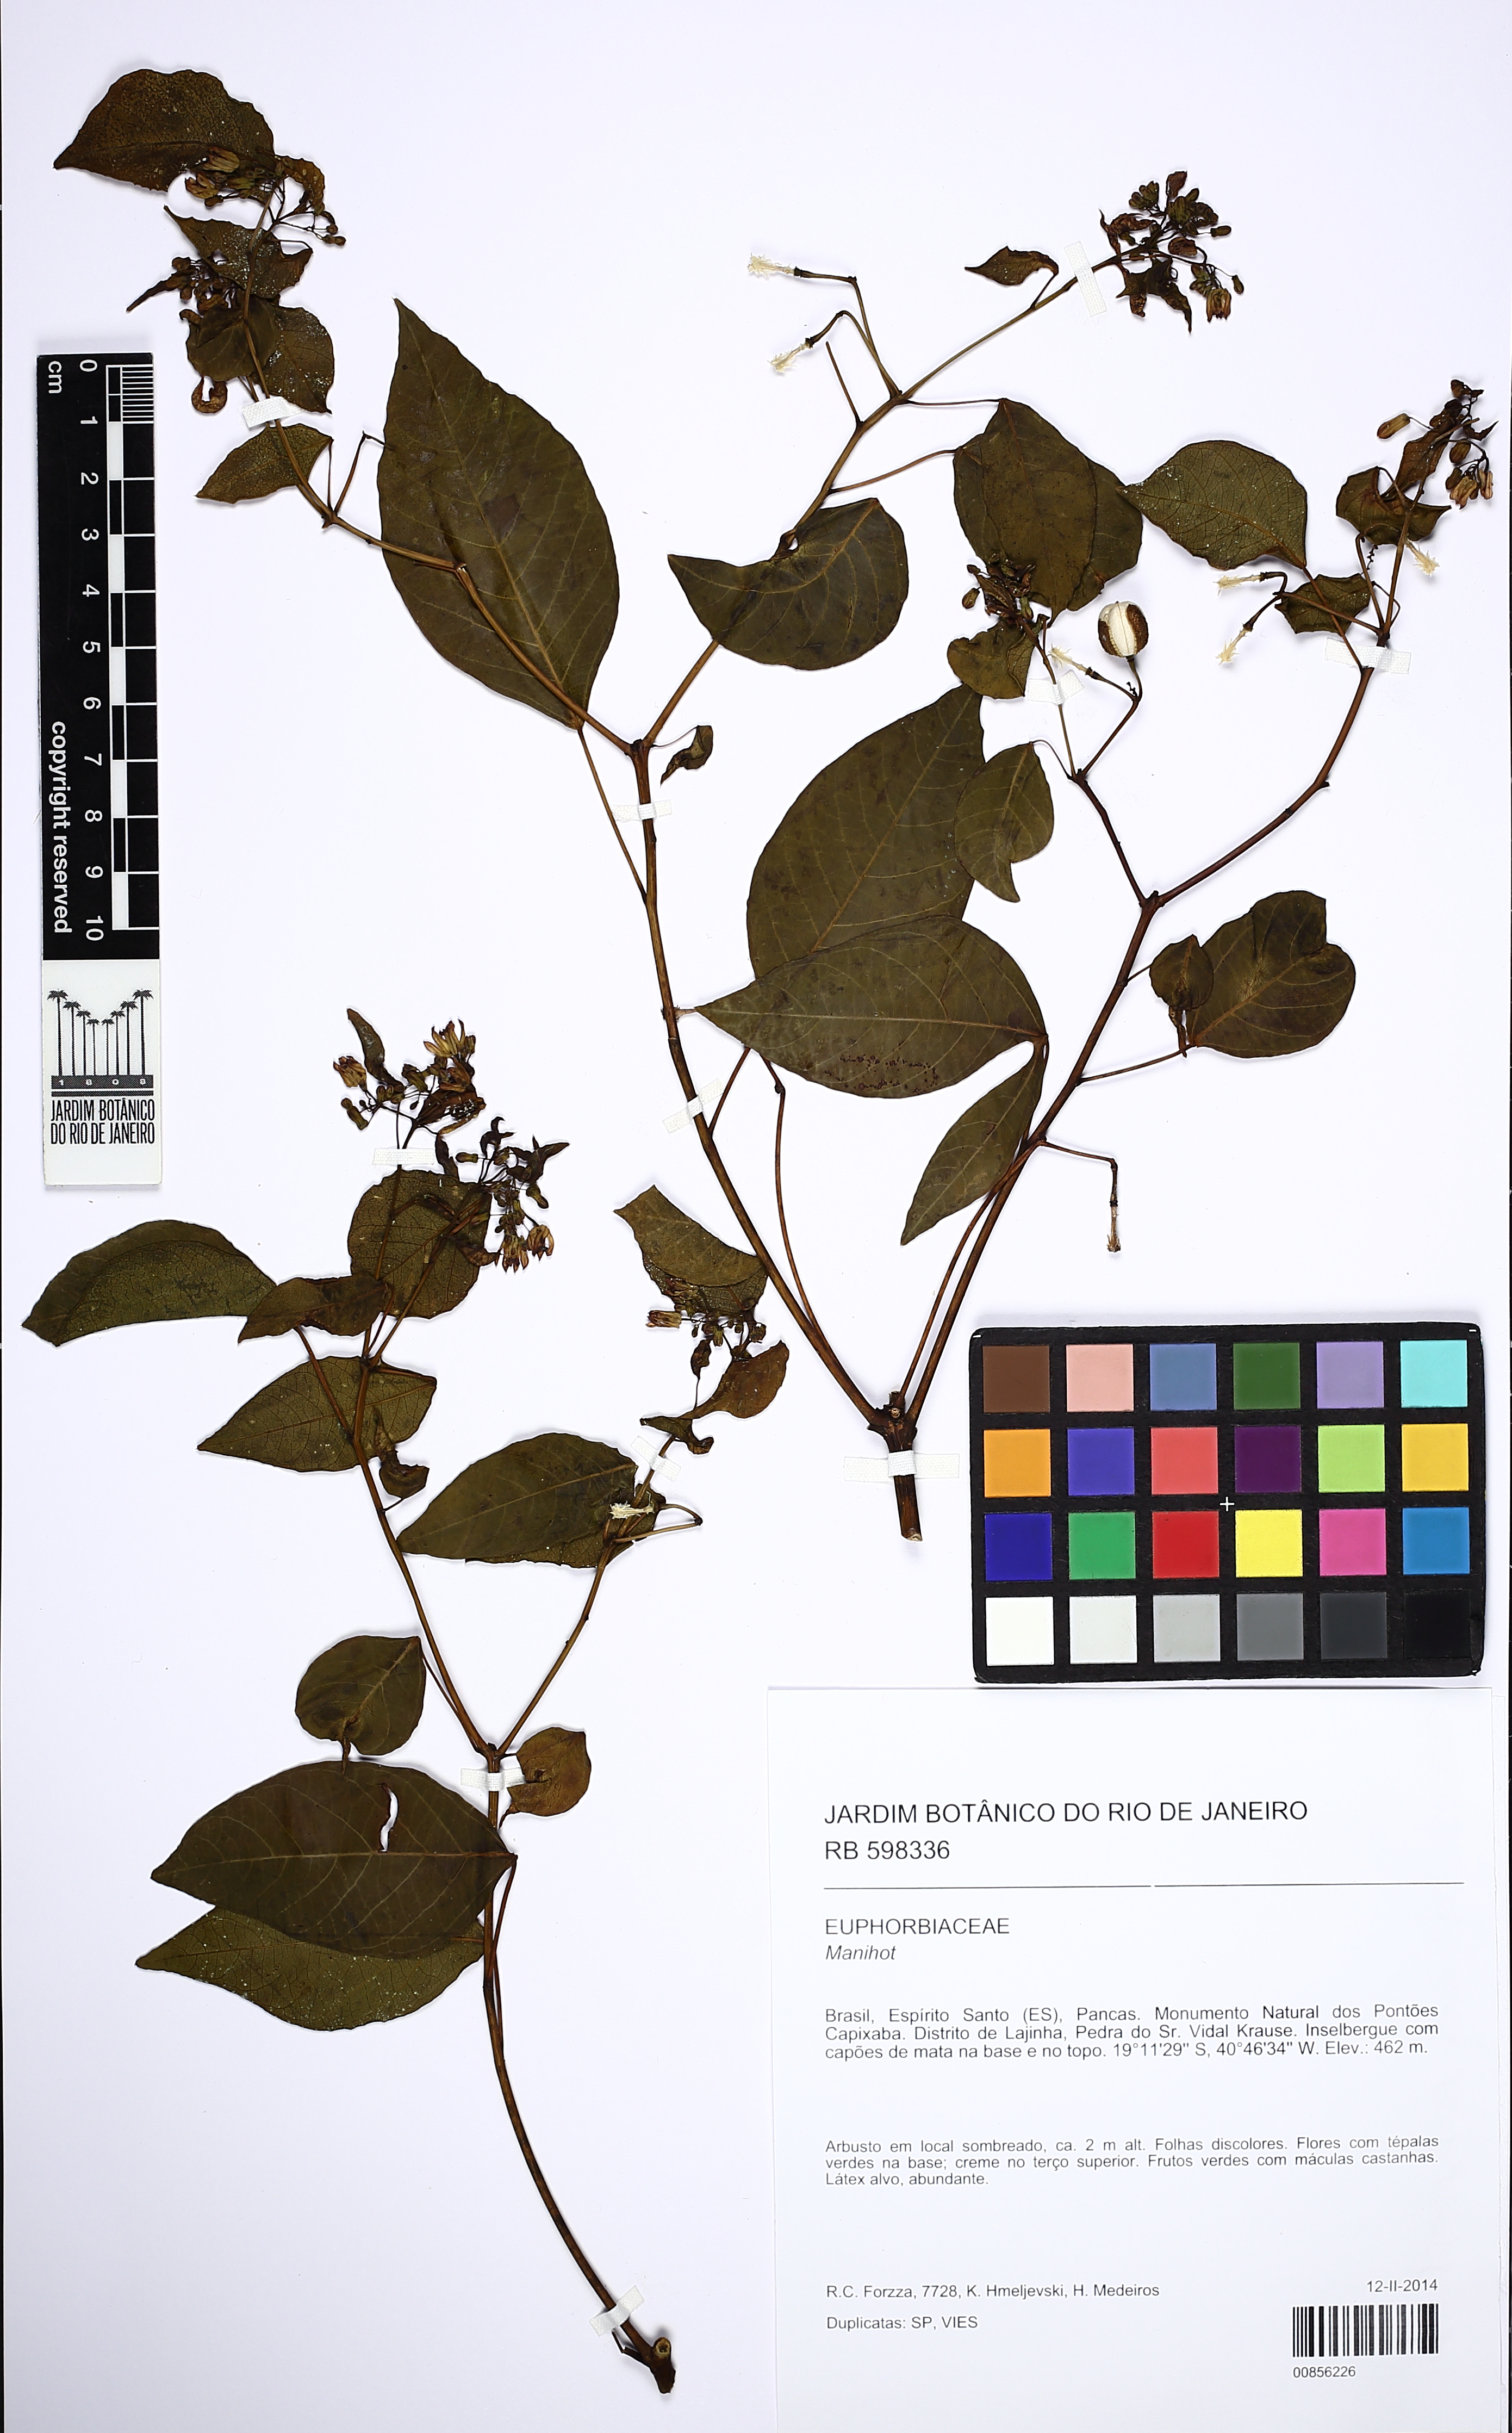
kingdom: Plantae
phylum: Tracheophyta
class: Magnoliopsida
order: Malpighiales
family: Euphorbiaceae
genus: Manihot
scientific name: Manihot pilosa
